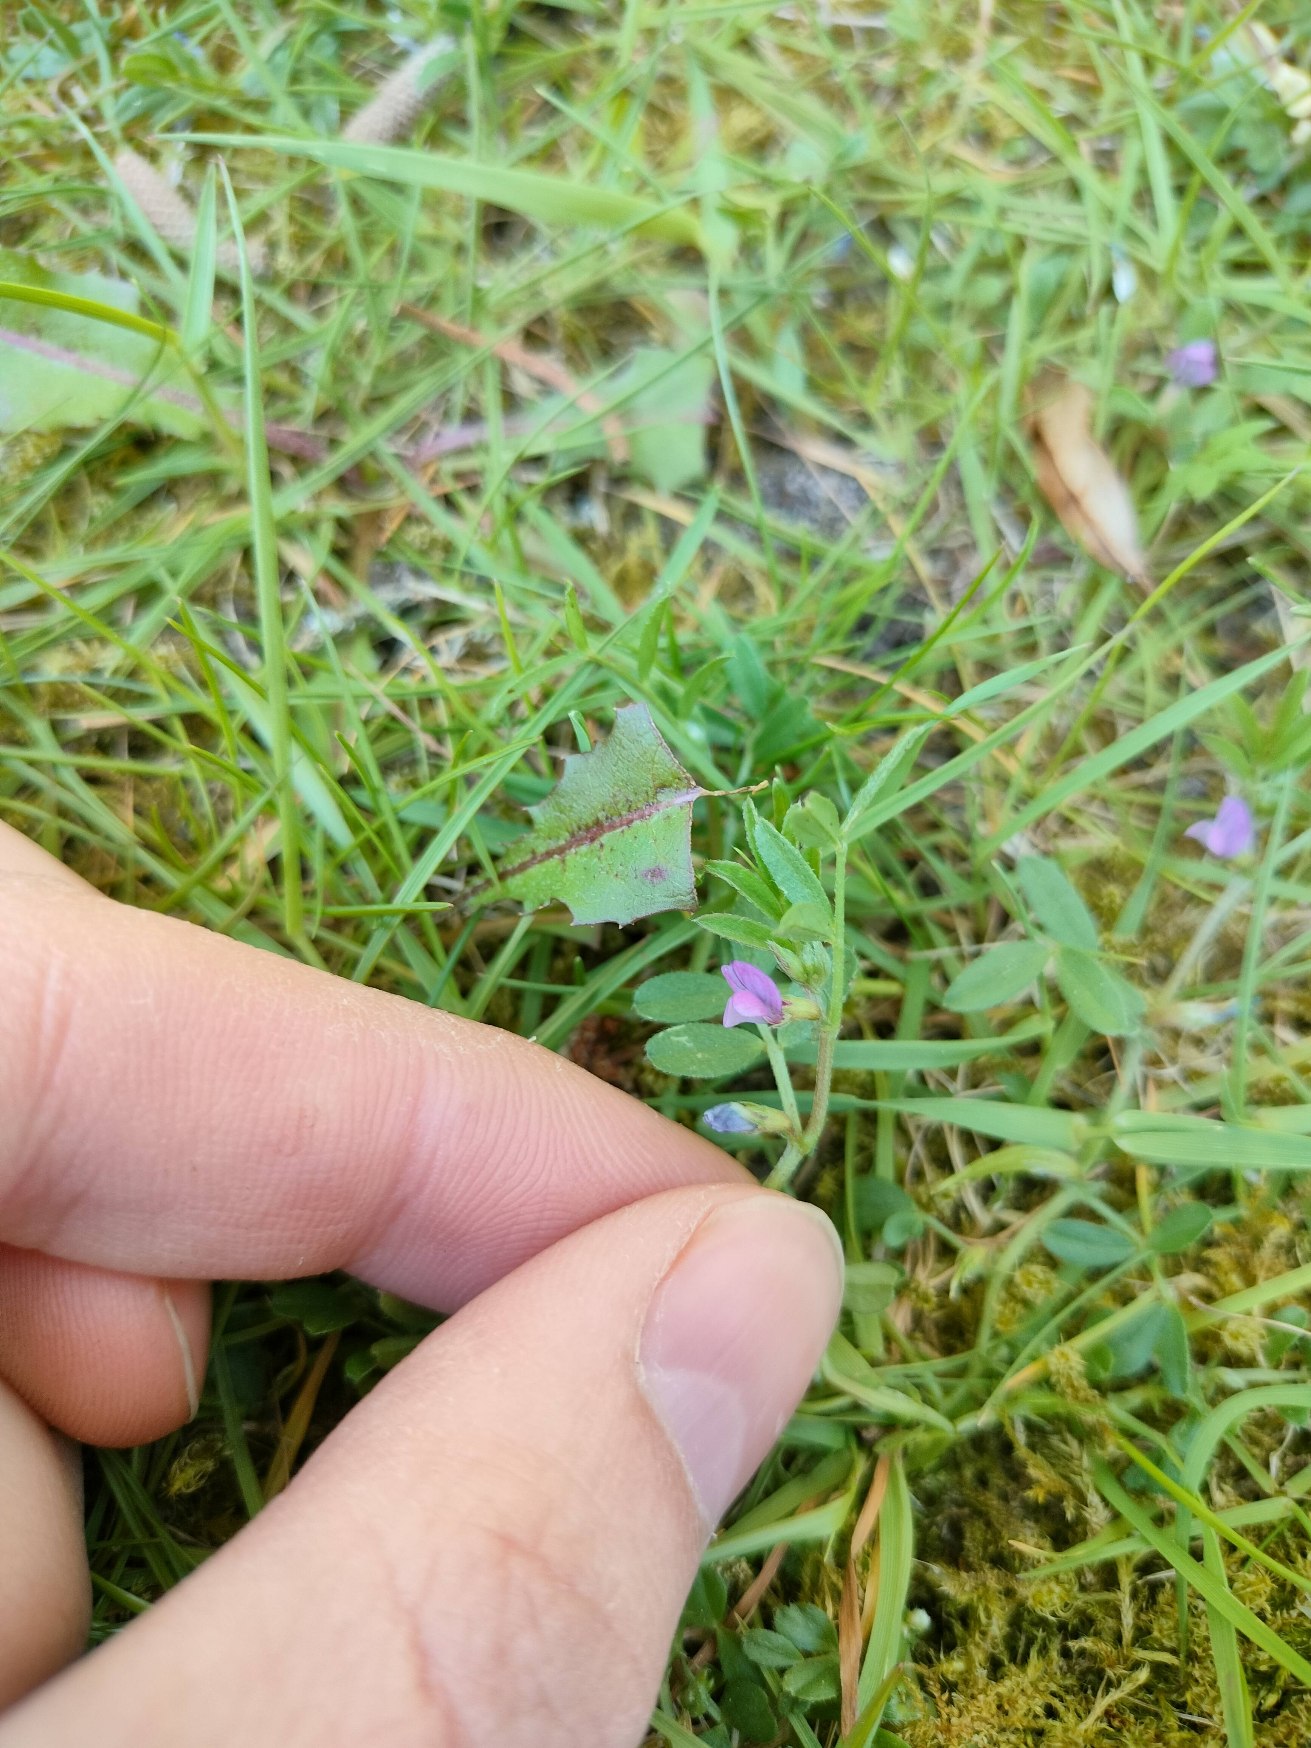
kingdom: Plantae
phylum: Tracheophyta
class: Magnoliopsida
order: Fabales
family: Fabaceae
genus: Vicia
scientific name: Vicia lathyroides
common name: Vår-vikke
